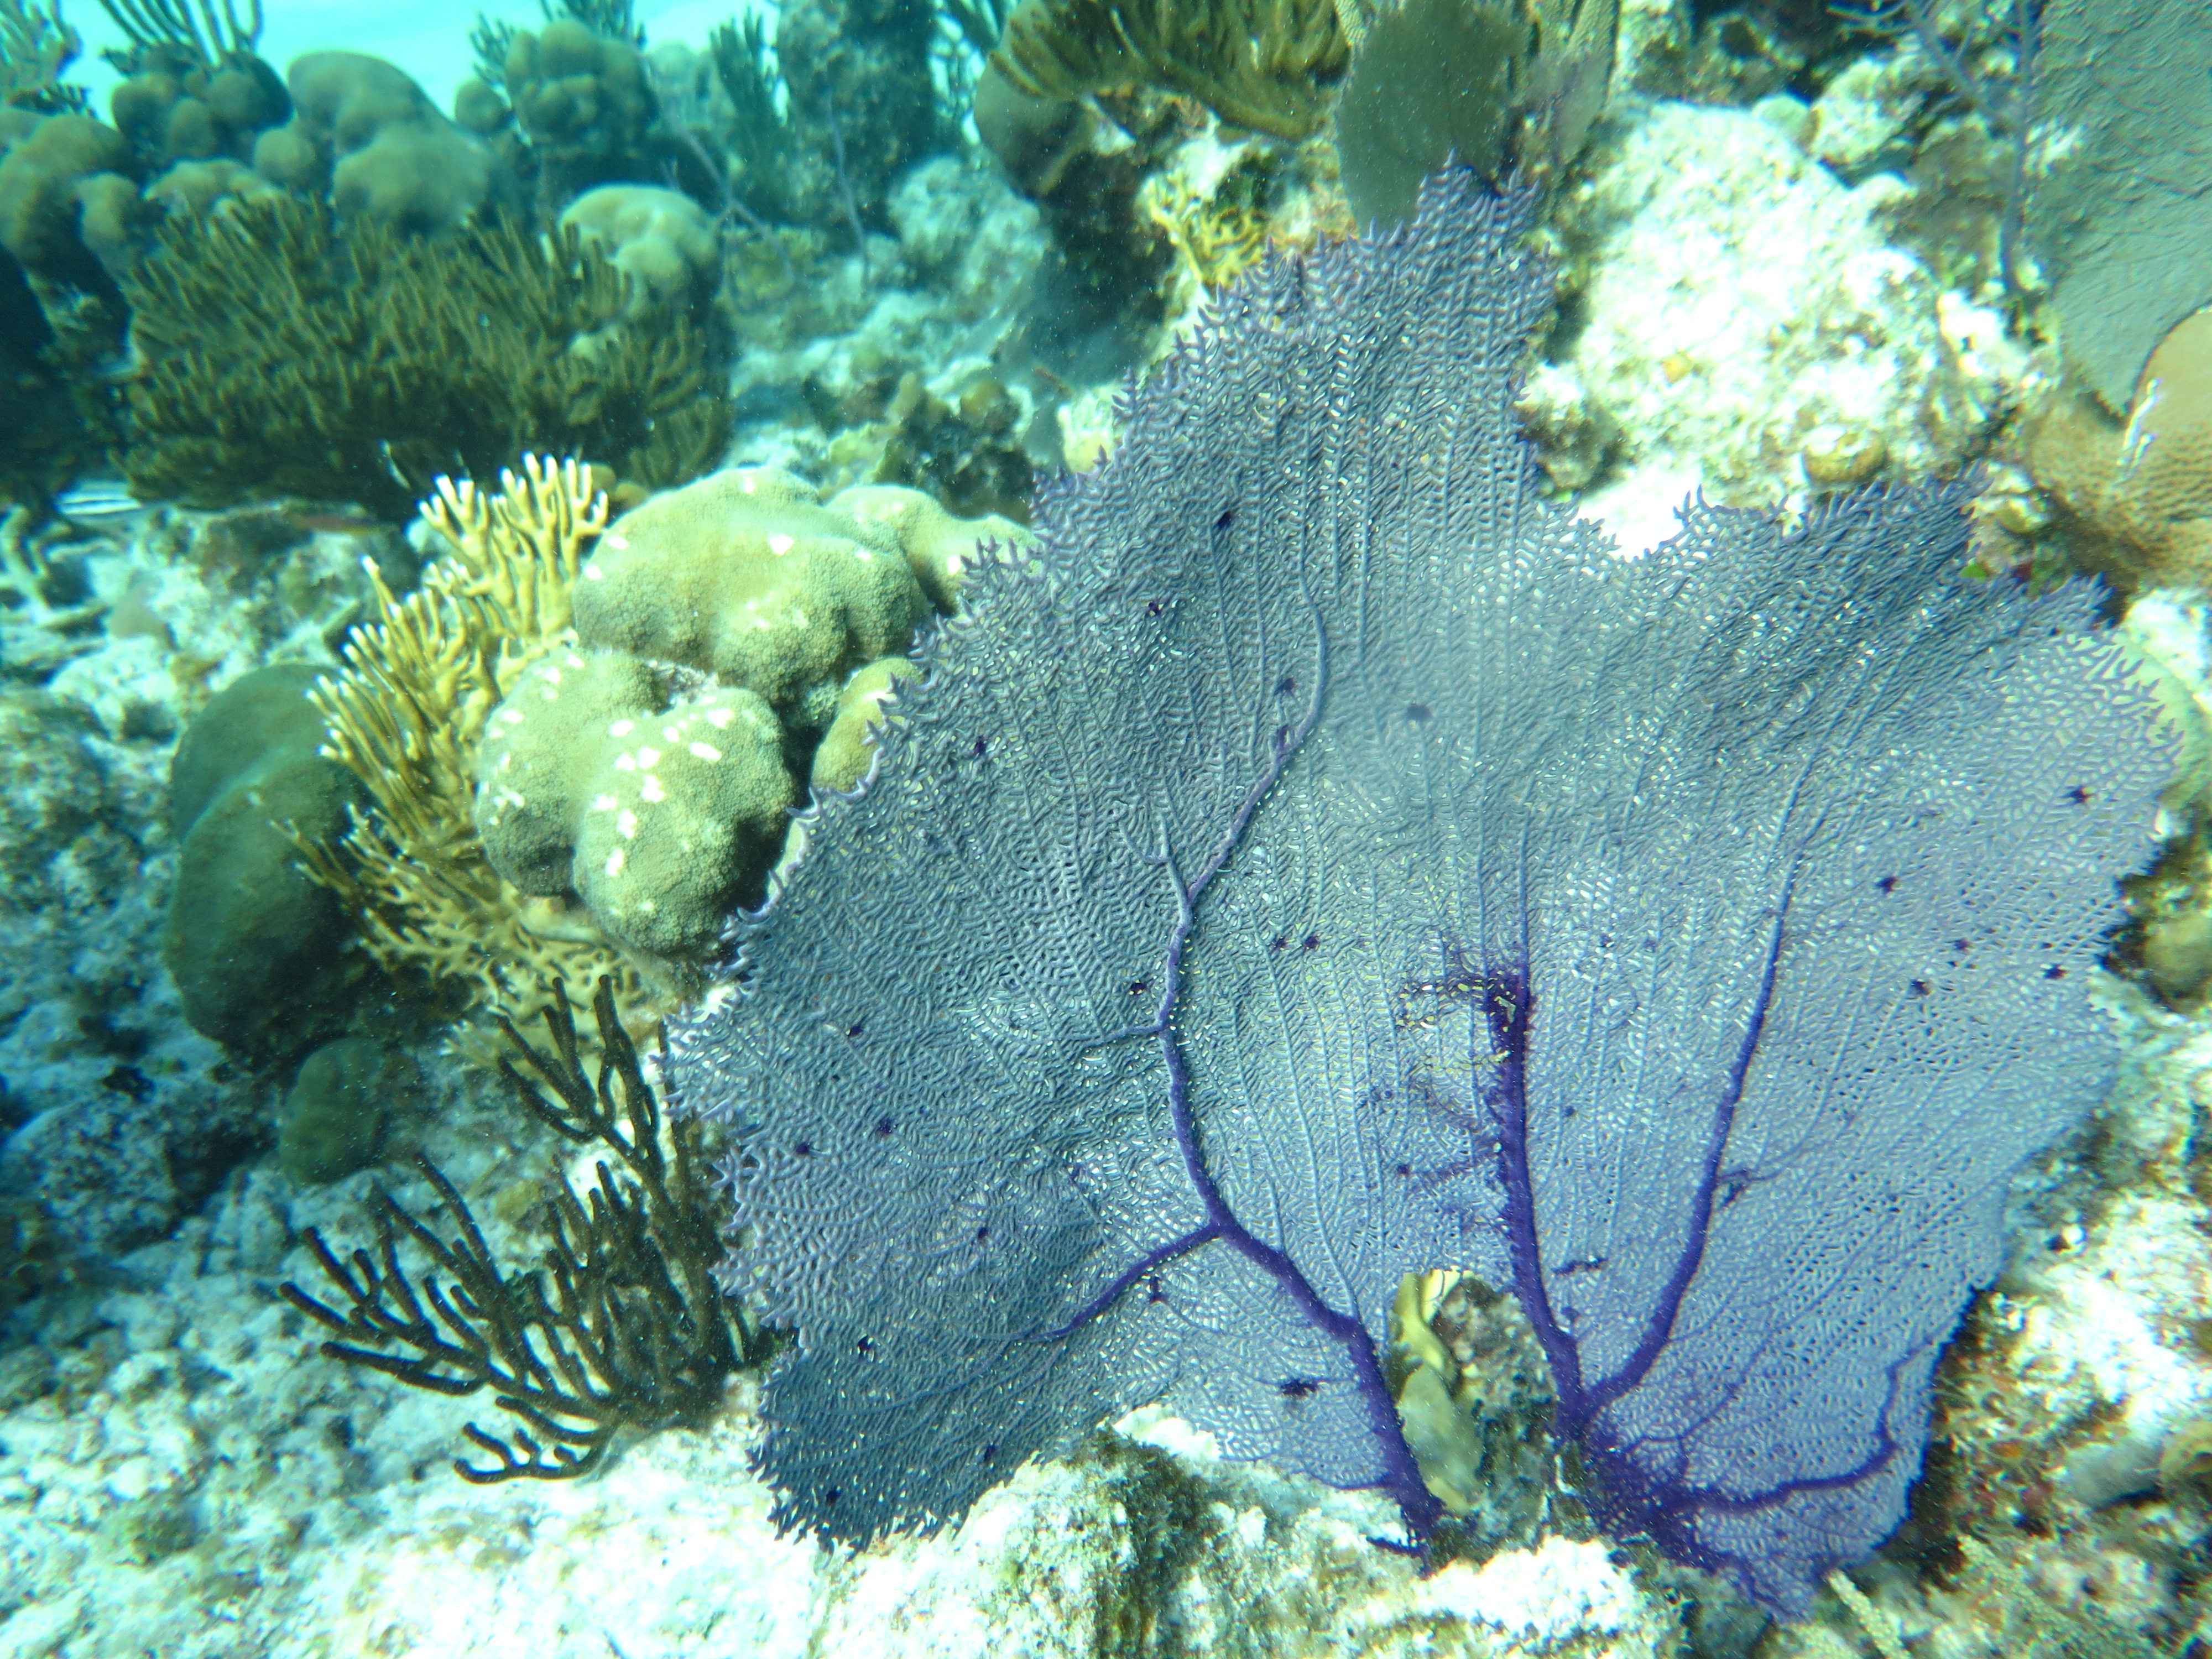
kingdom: Animalia
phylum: Cnidaria
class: Anthozoa
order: Malacalcyonacea
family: Gorgoniidae
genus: Gorgonia
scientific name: Gorgonia ventalina
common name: Common sea fan
